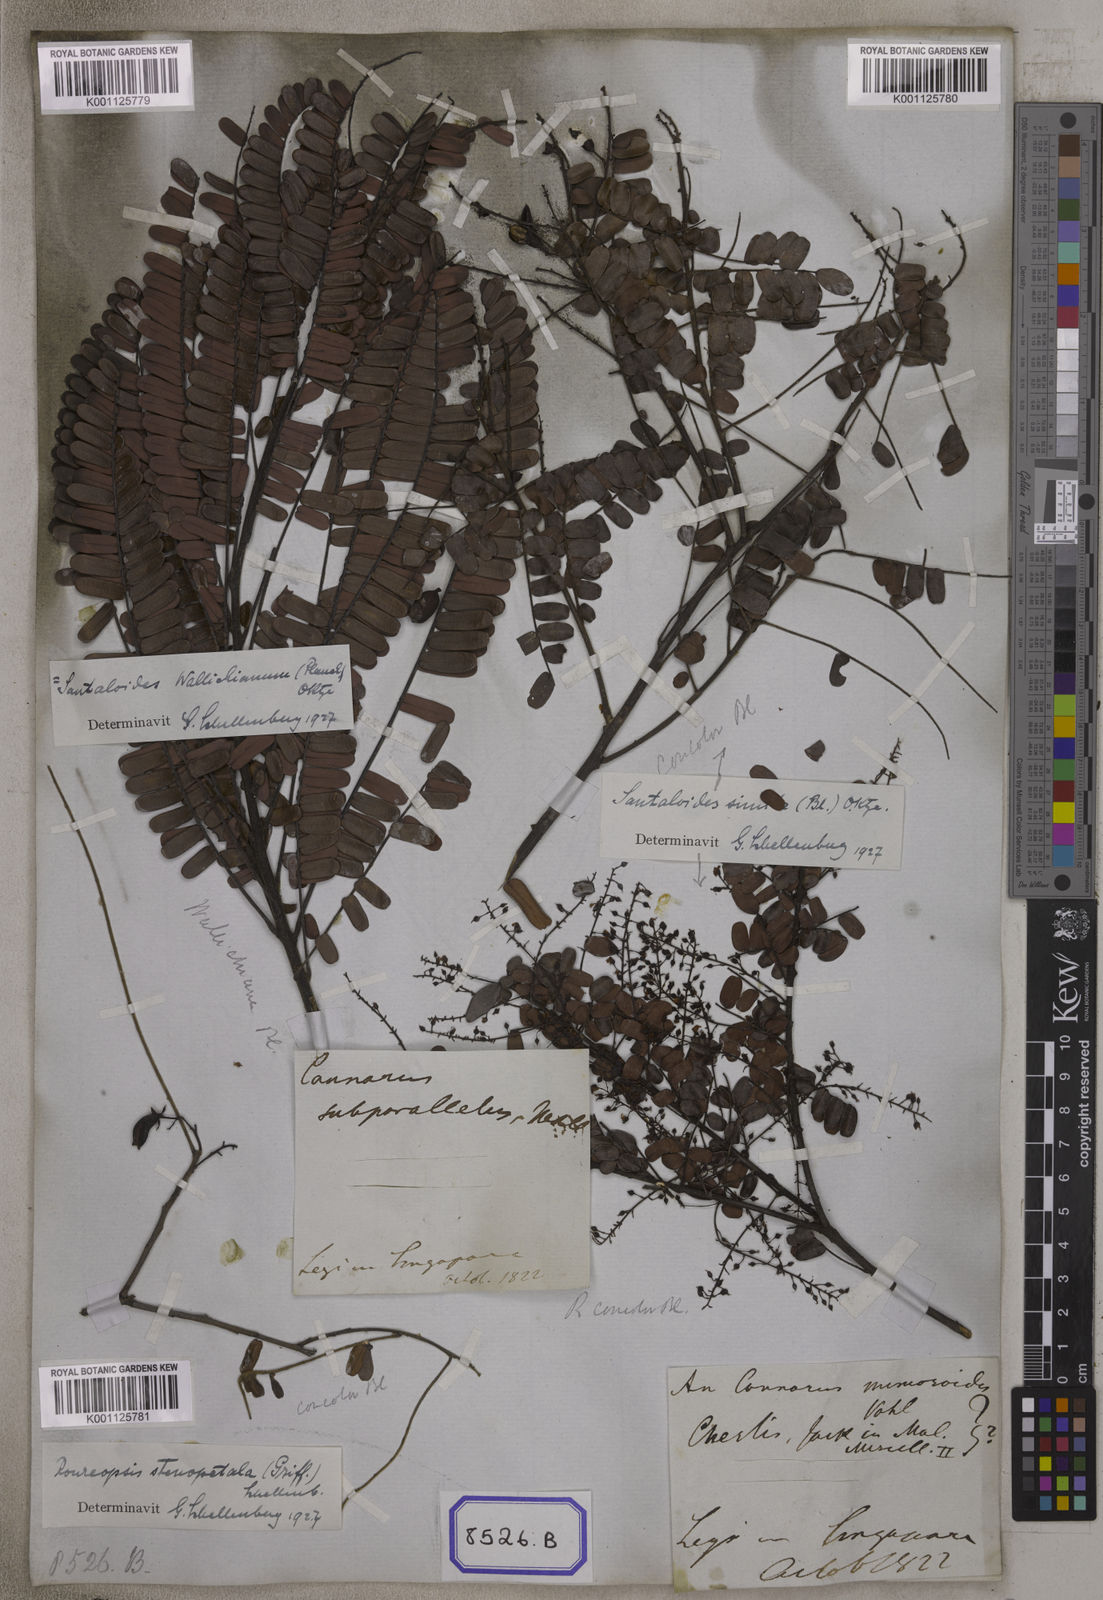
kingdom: Plantae
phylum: Tracheophyta
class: Magnoliopsida
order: Oxalidales
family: Connaraceae
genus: Connarus
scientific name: Connarus
